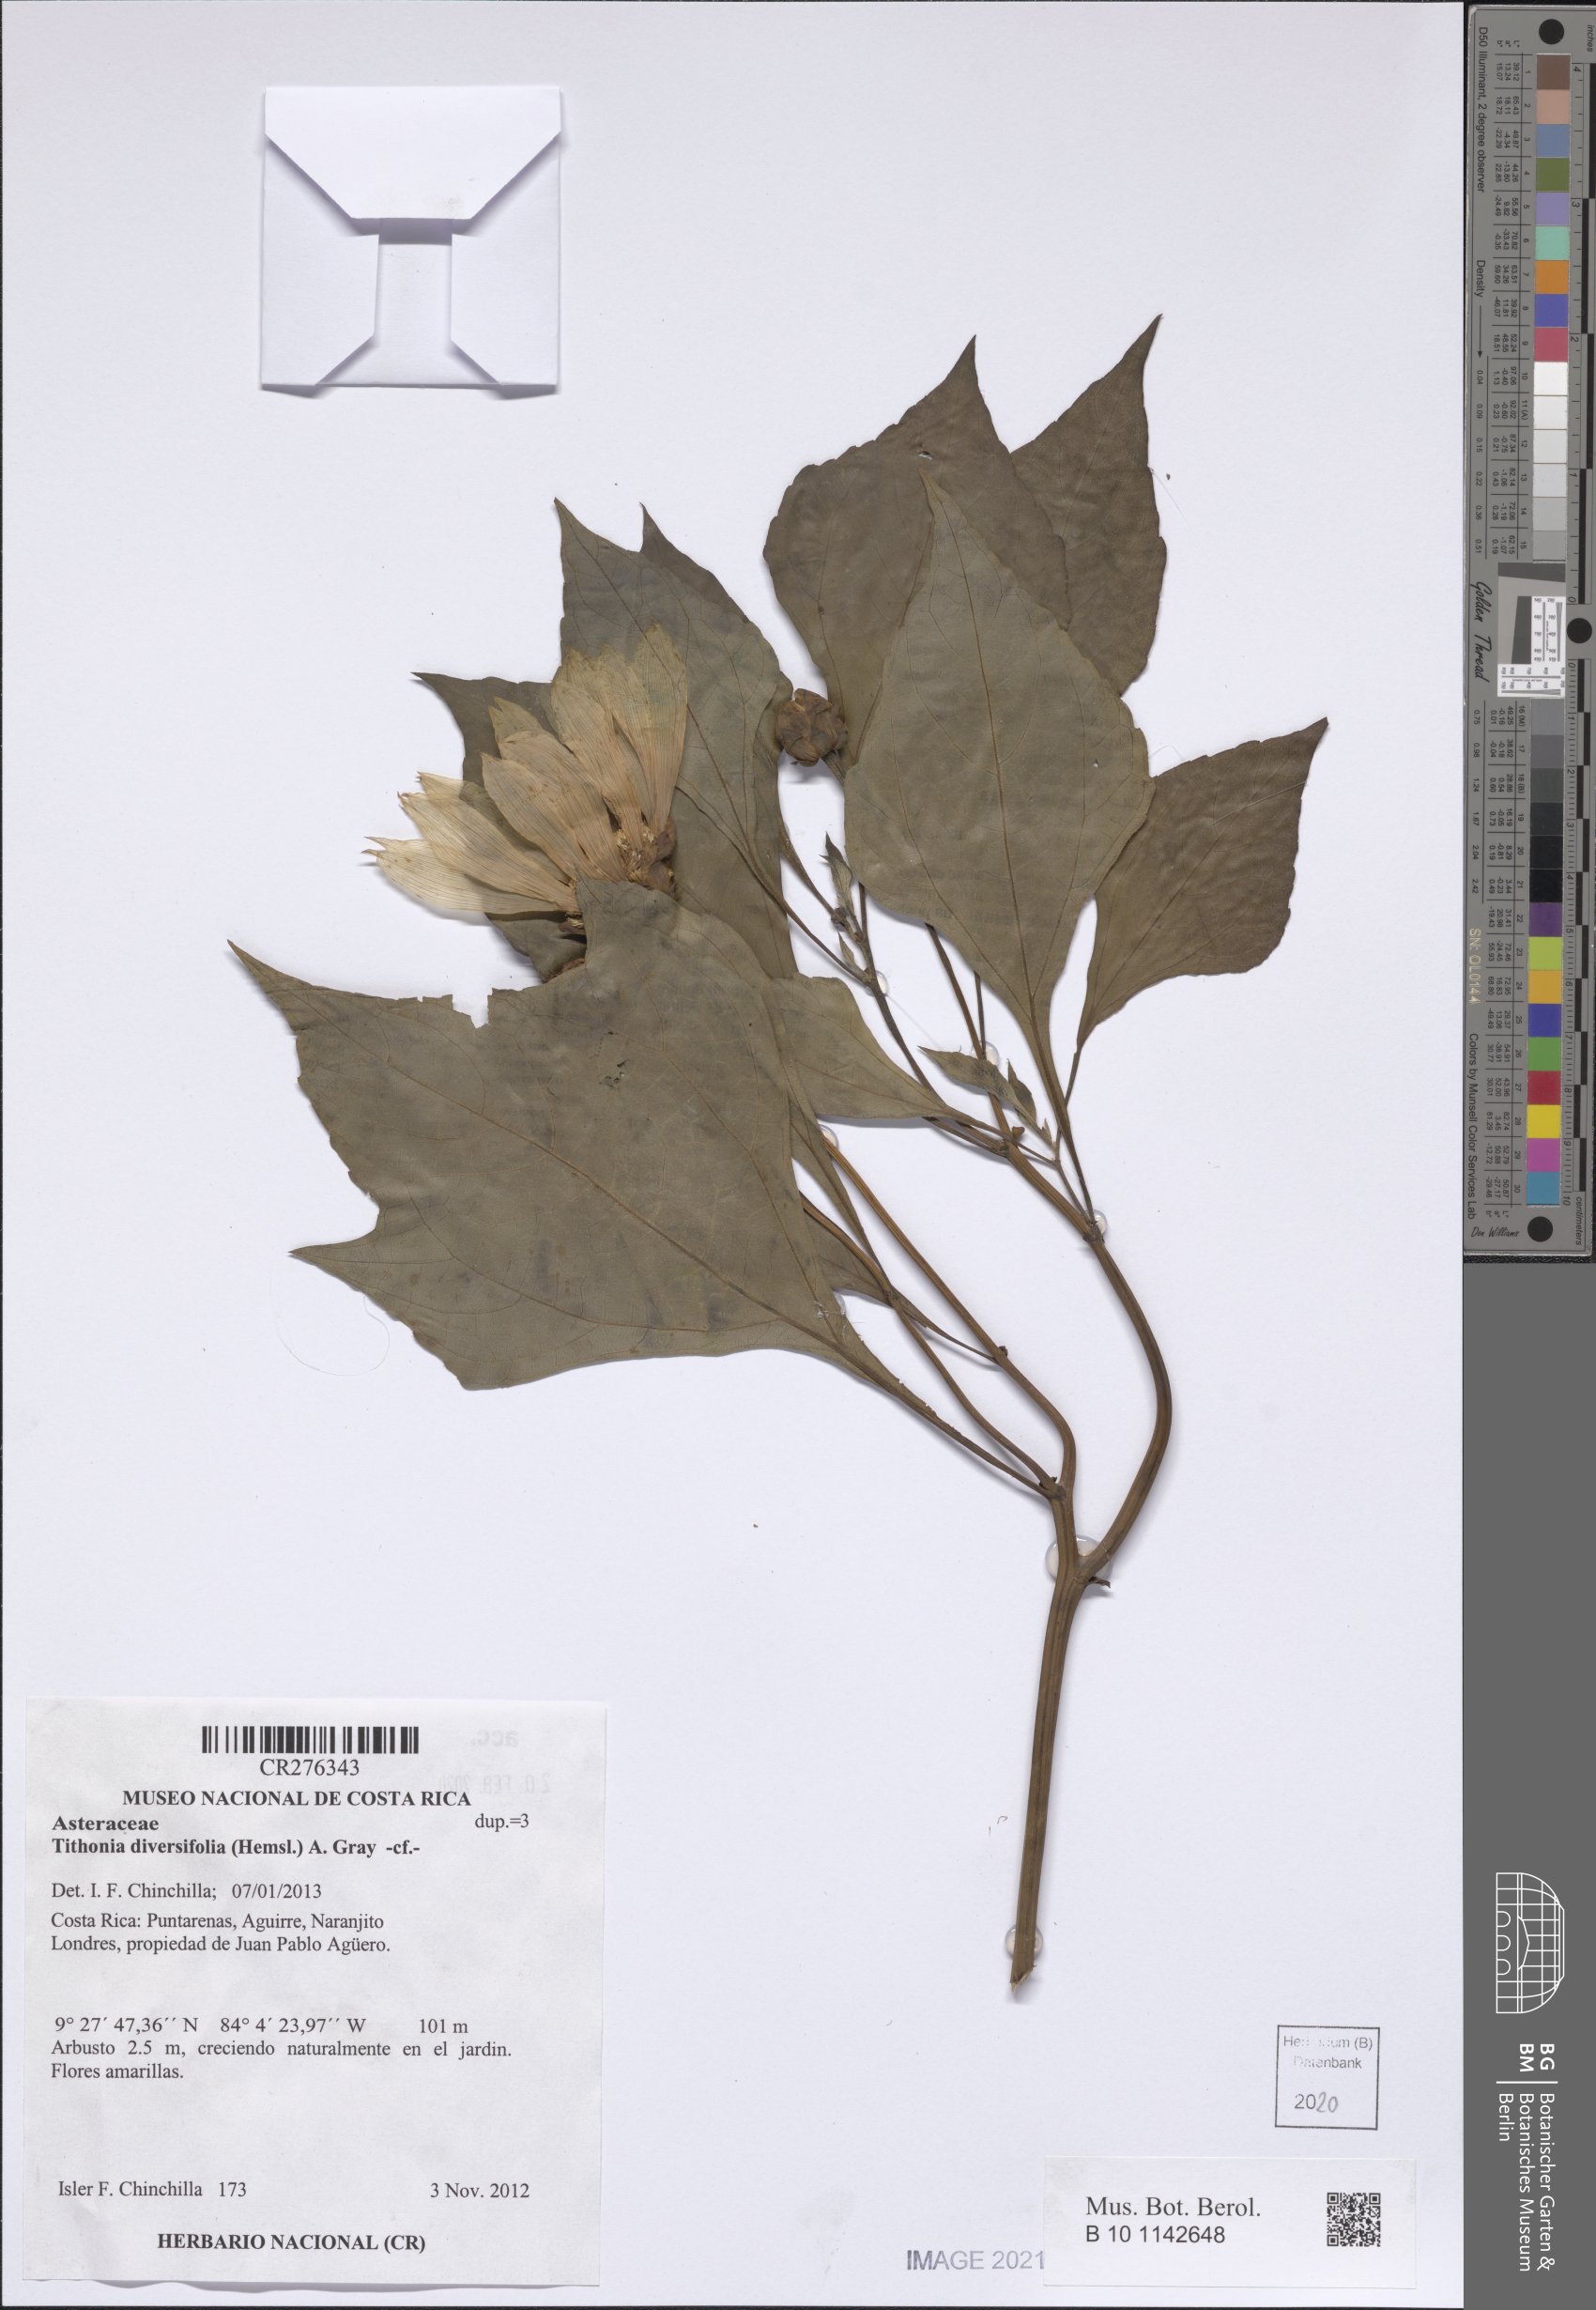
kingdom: Plantae
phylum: Tracheophyta
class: Magnoliopsida
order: Asterales
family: Asteraceae
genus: Tithonia
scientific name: Tithonia diversifolia
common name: Tree marigold
